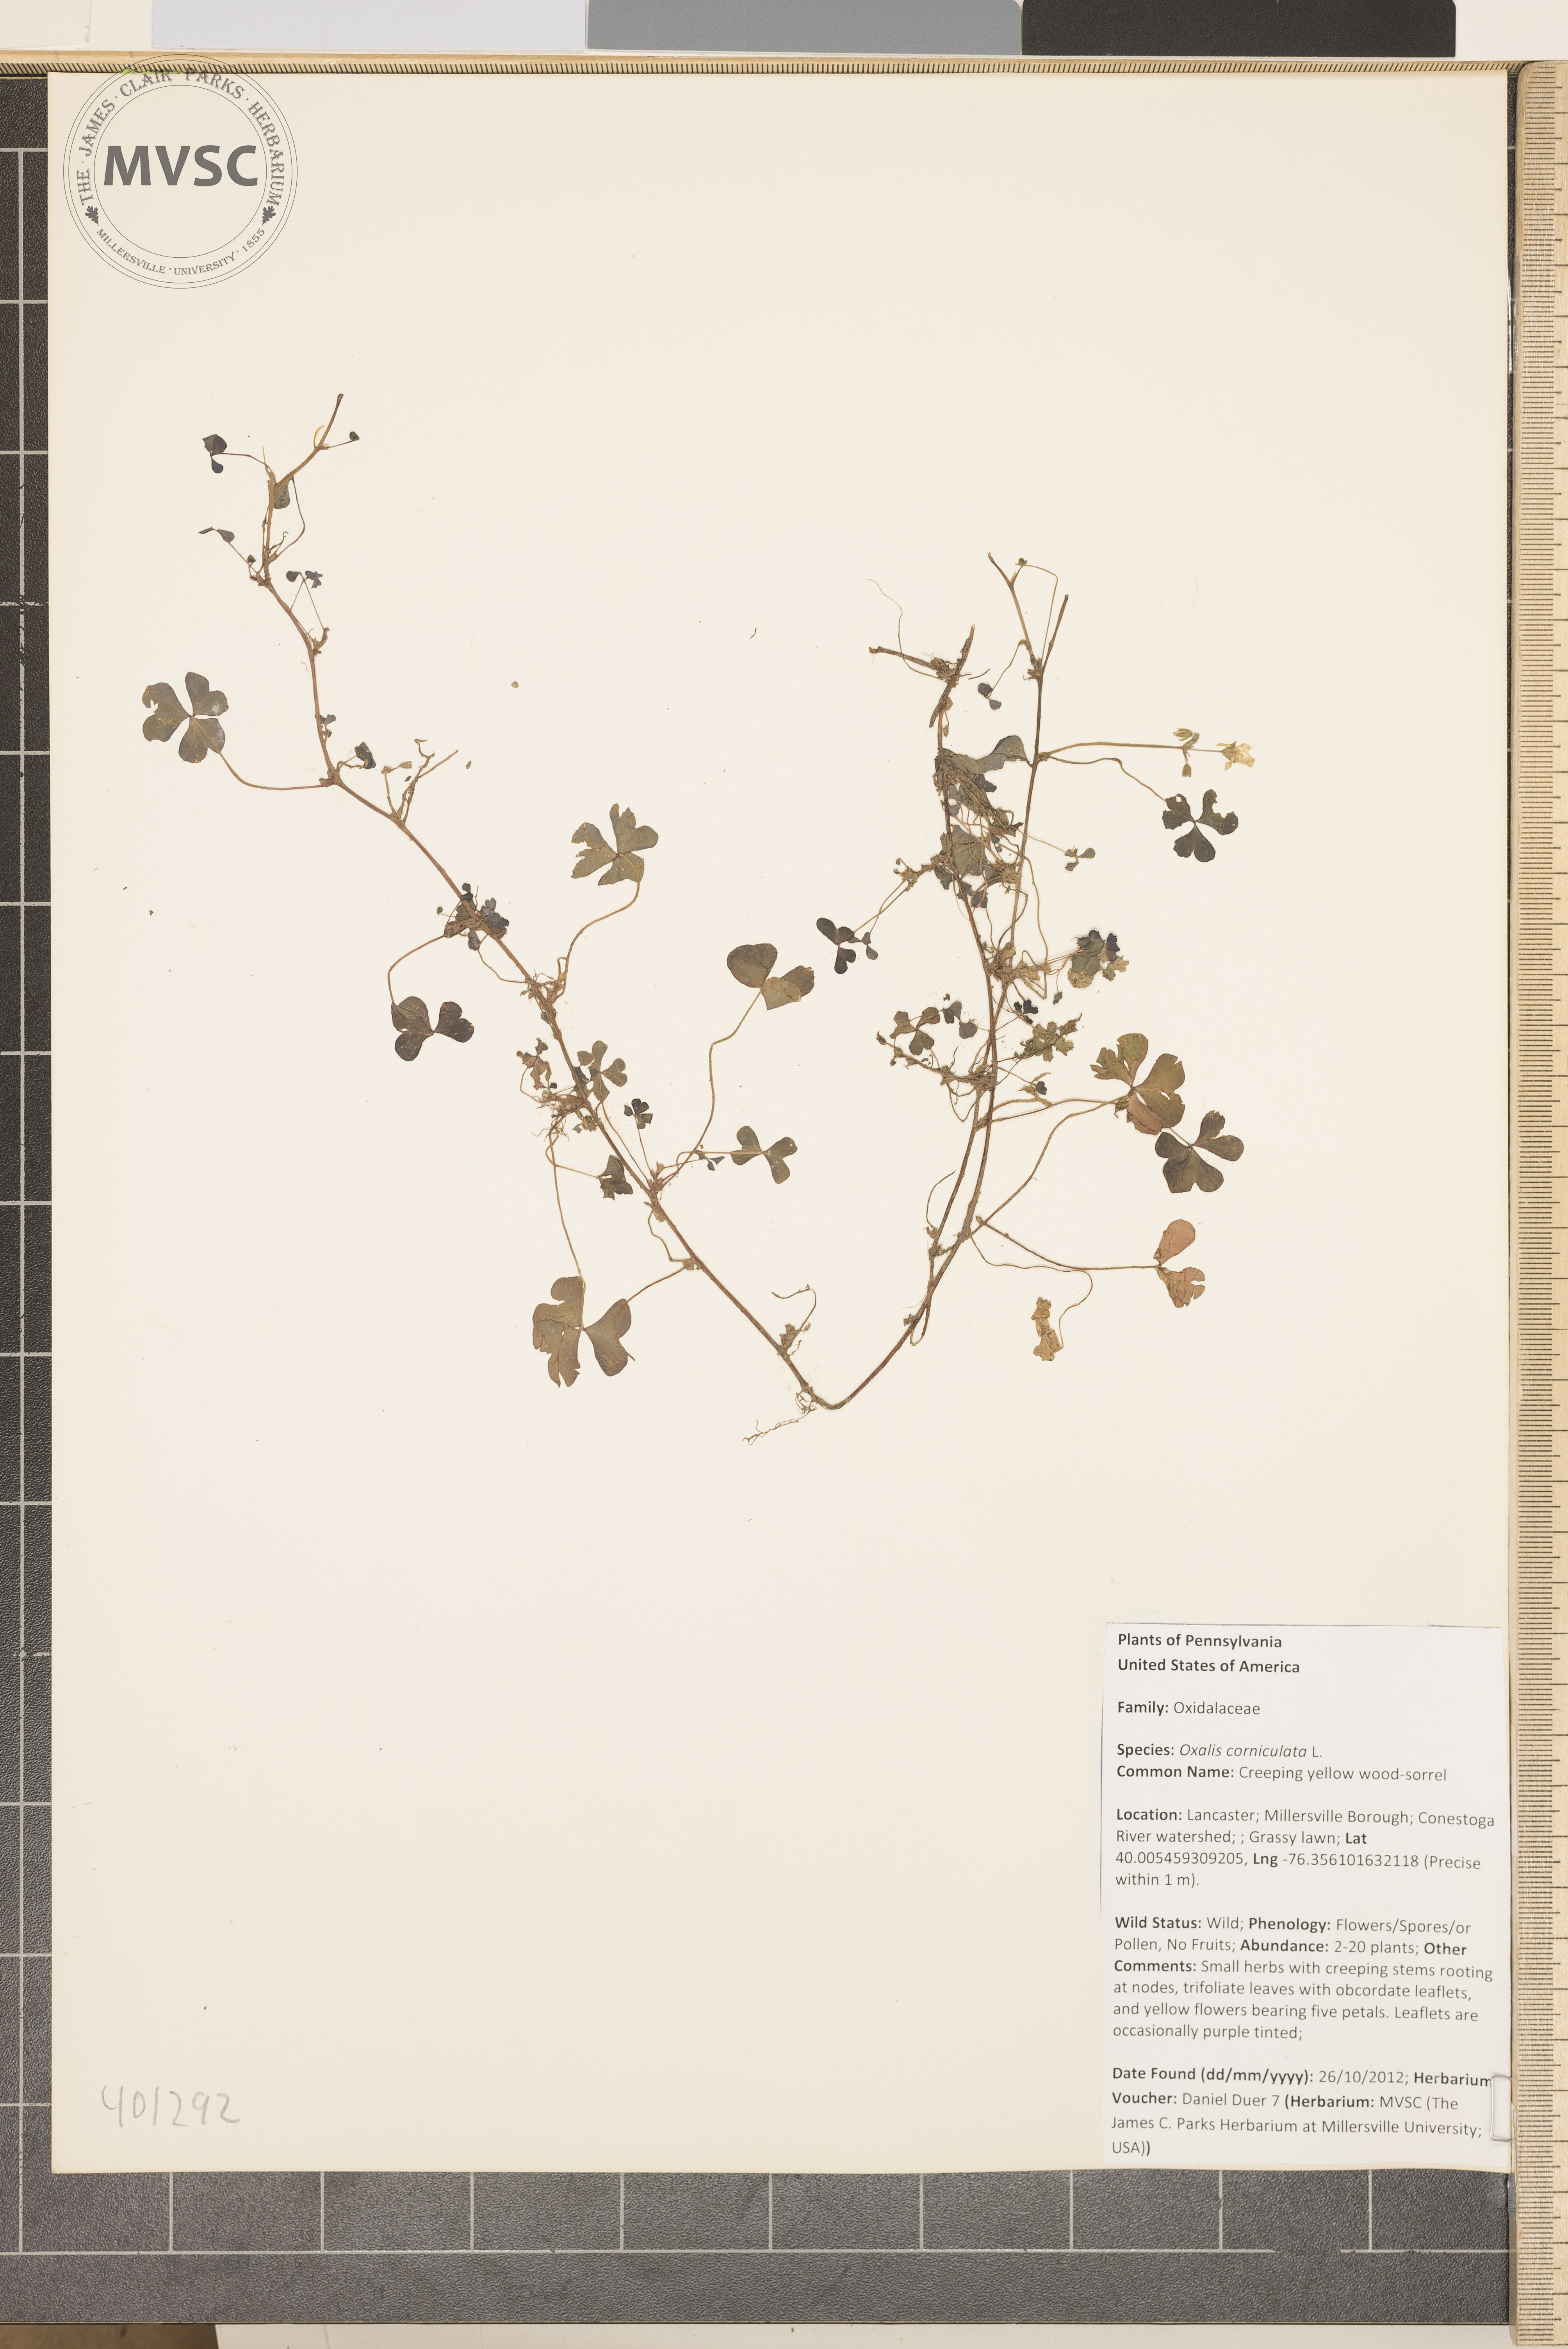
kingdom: Plantae
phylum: Tracheophyta
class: Magnoliopsida
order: Oxalidales
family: Oxalidaceae
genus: Oxalis
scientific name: Oxalis corniculata
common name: Creeping yellow wood-sorrel
